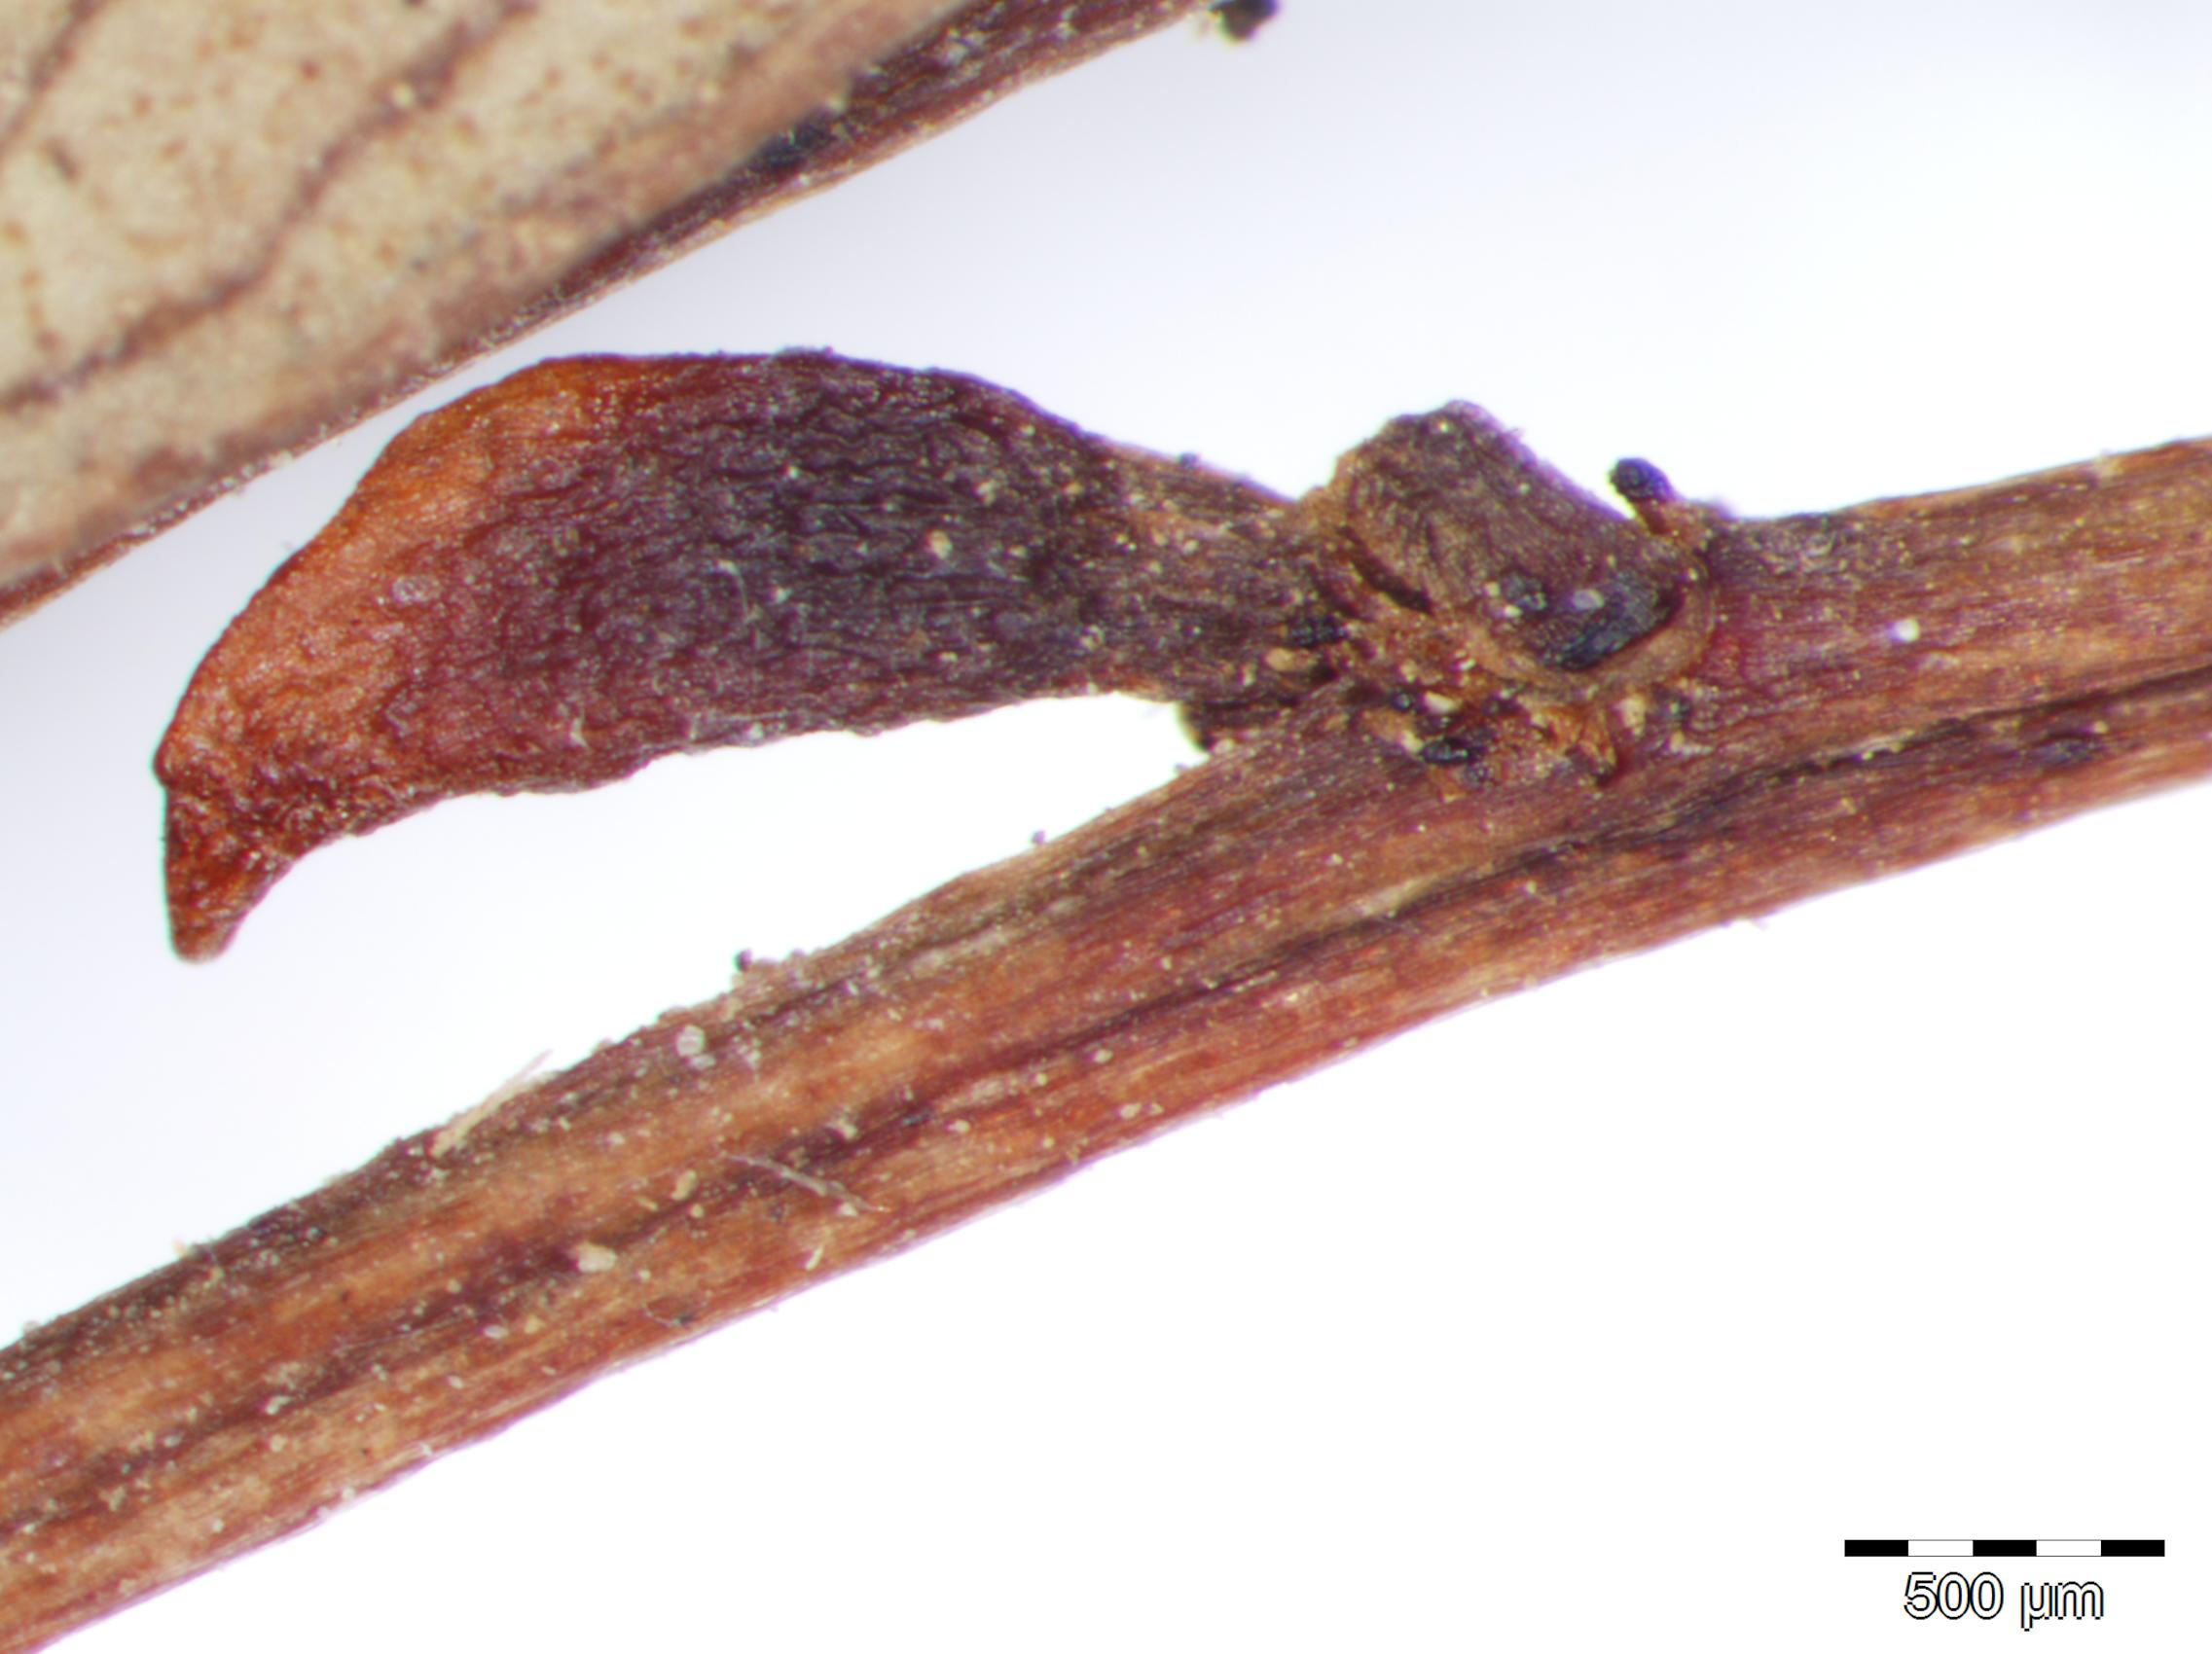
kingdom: Plantae
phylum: Tracheophyta
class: Magnoliopsida
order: Fabales
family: Fabaceae
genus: Senna
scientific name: Senna pallida
